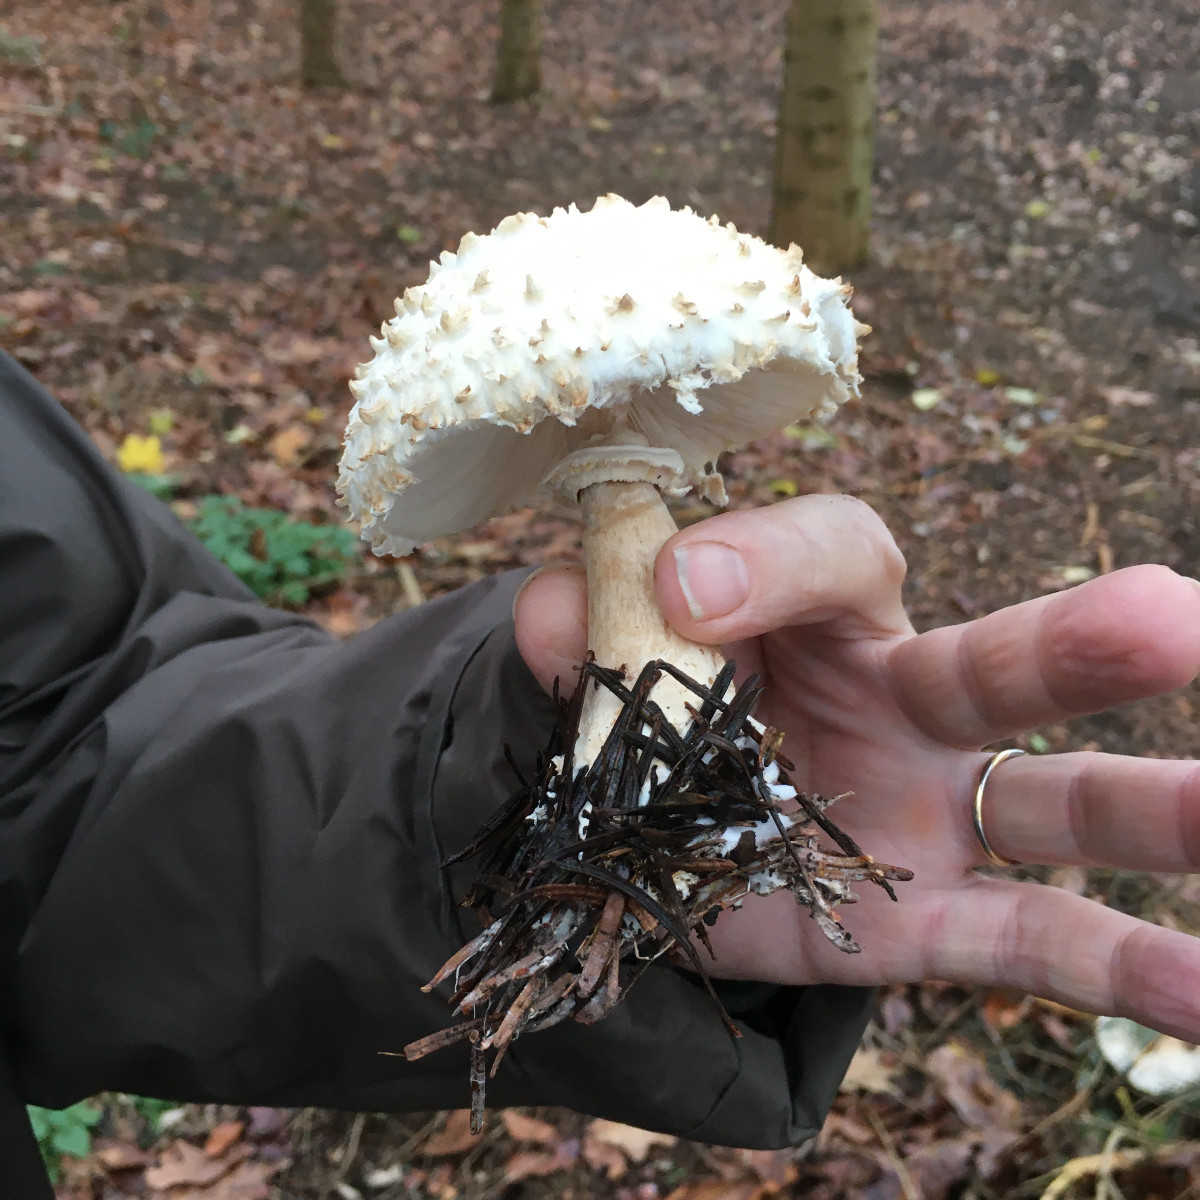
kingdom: Fungi
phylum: Basidiomycota
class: Agaricomycetes
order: Agaricales
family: Agaricaceae
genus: Leucoagaricus
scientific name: Leucoagaricus nympharum
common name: gran-silkehat
